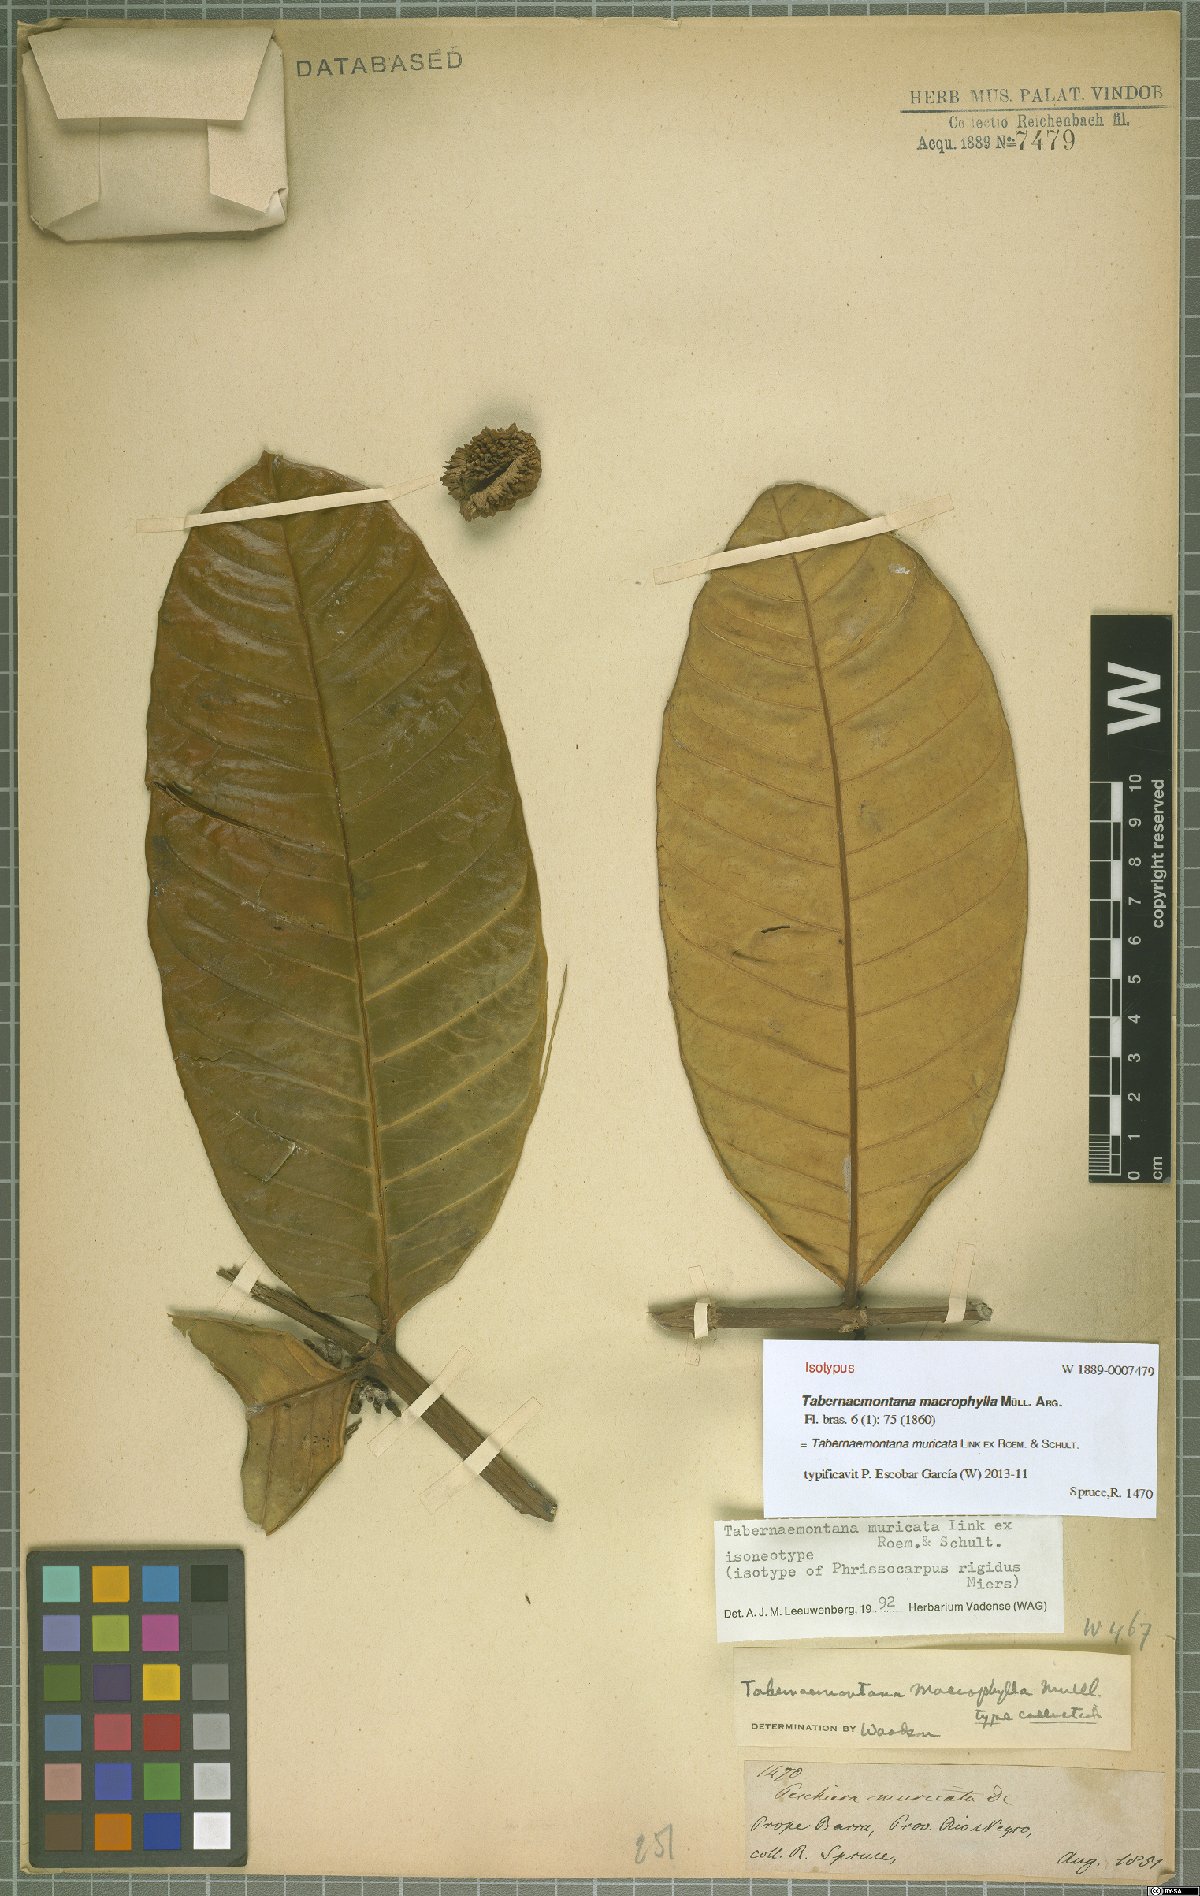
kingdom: Plantae
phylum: Tracheophyta
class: Magnoliopsida
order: Gentianales
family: Apocynaceae
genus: Tabernaemontana
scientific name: Tabernaemontana muricata
